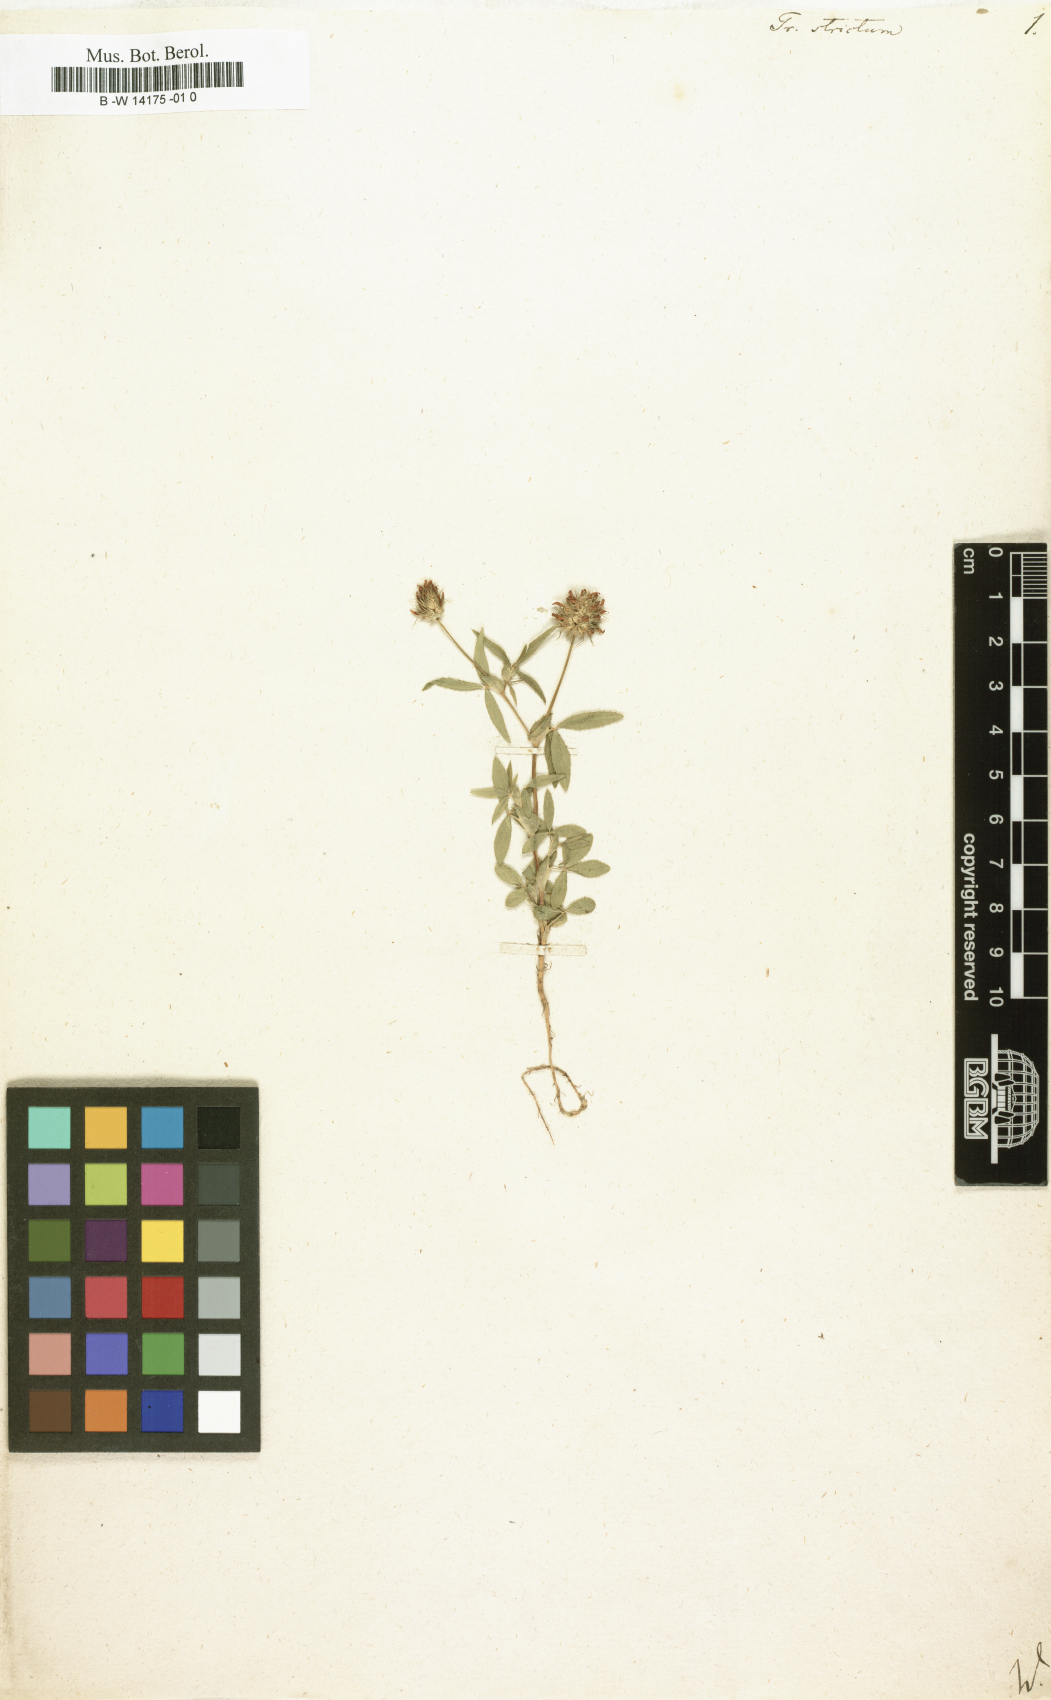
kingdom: Plantae
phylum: Tracheophyta
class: Magnoliopsida
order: Fabales
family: Fabaceae
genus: Trifolium
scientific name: Trifolium strictum
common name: Upright clover
